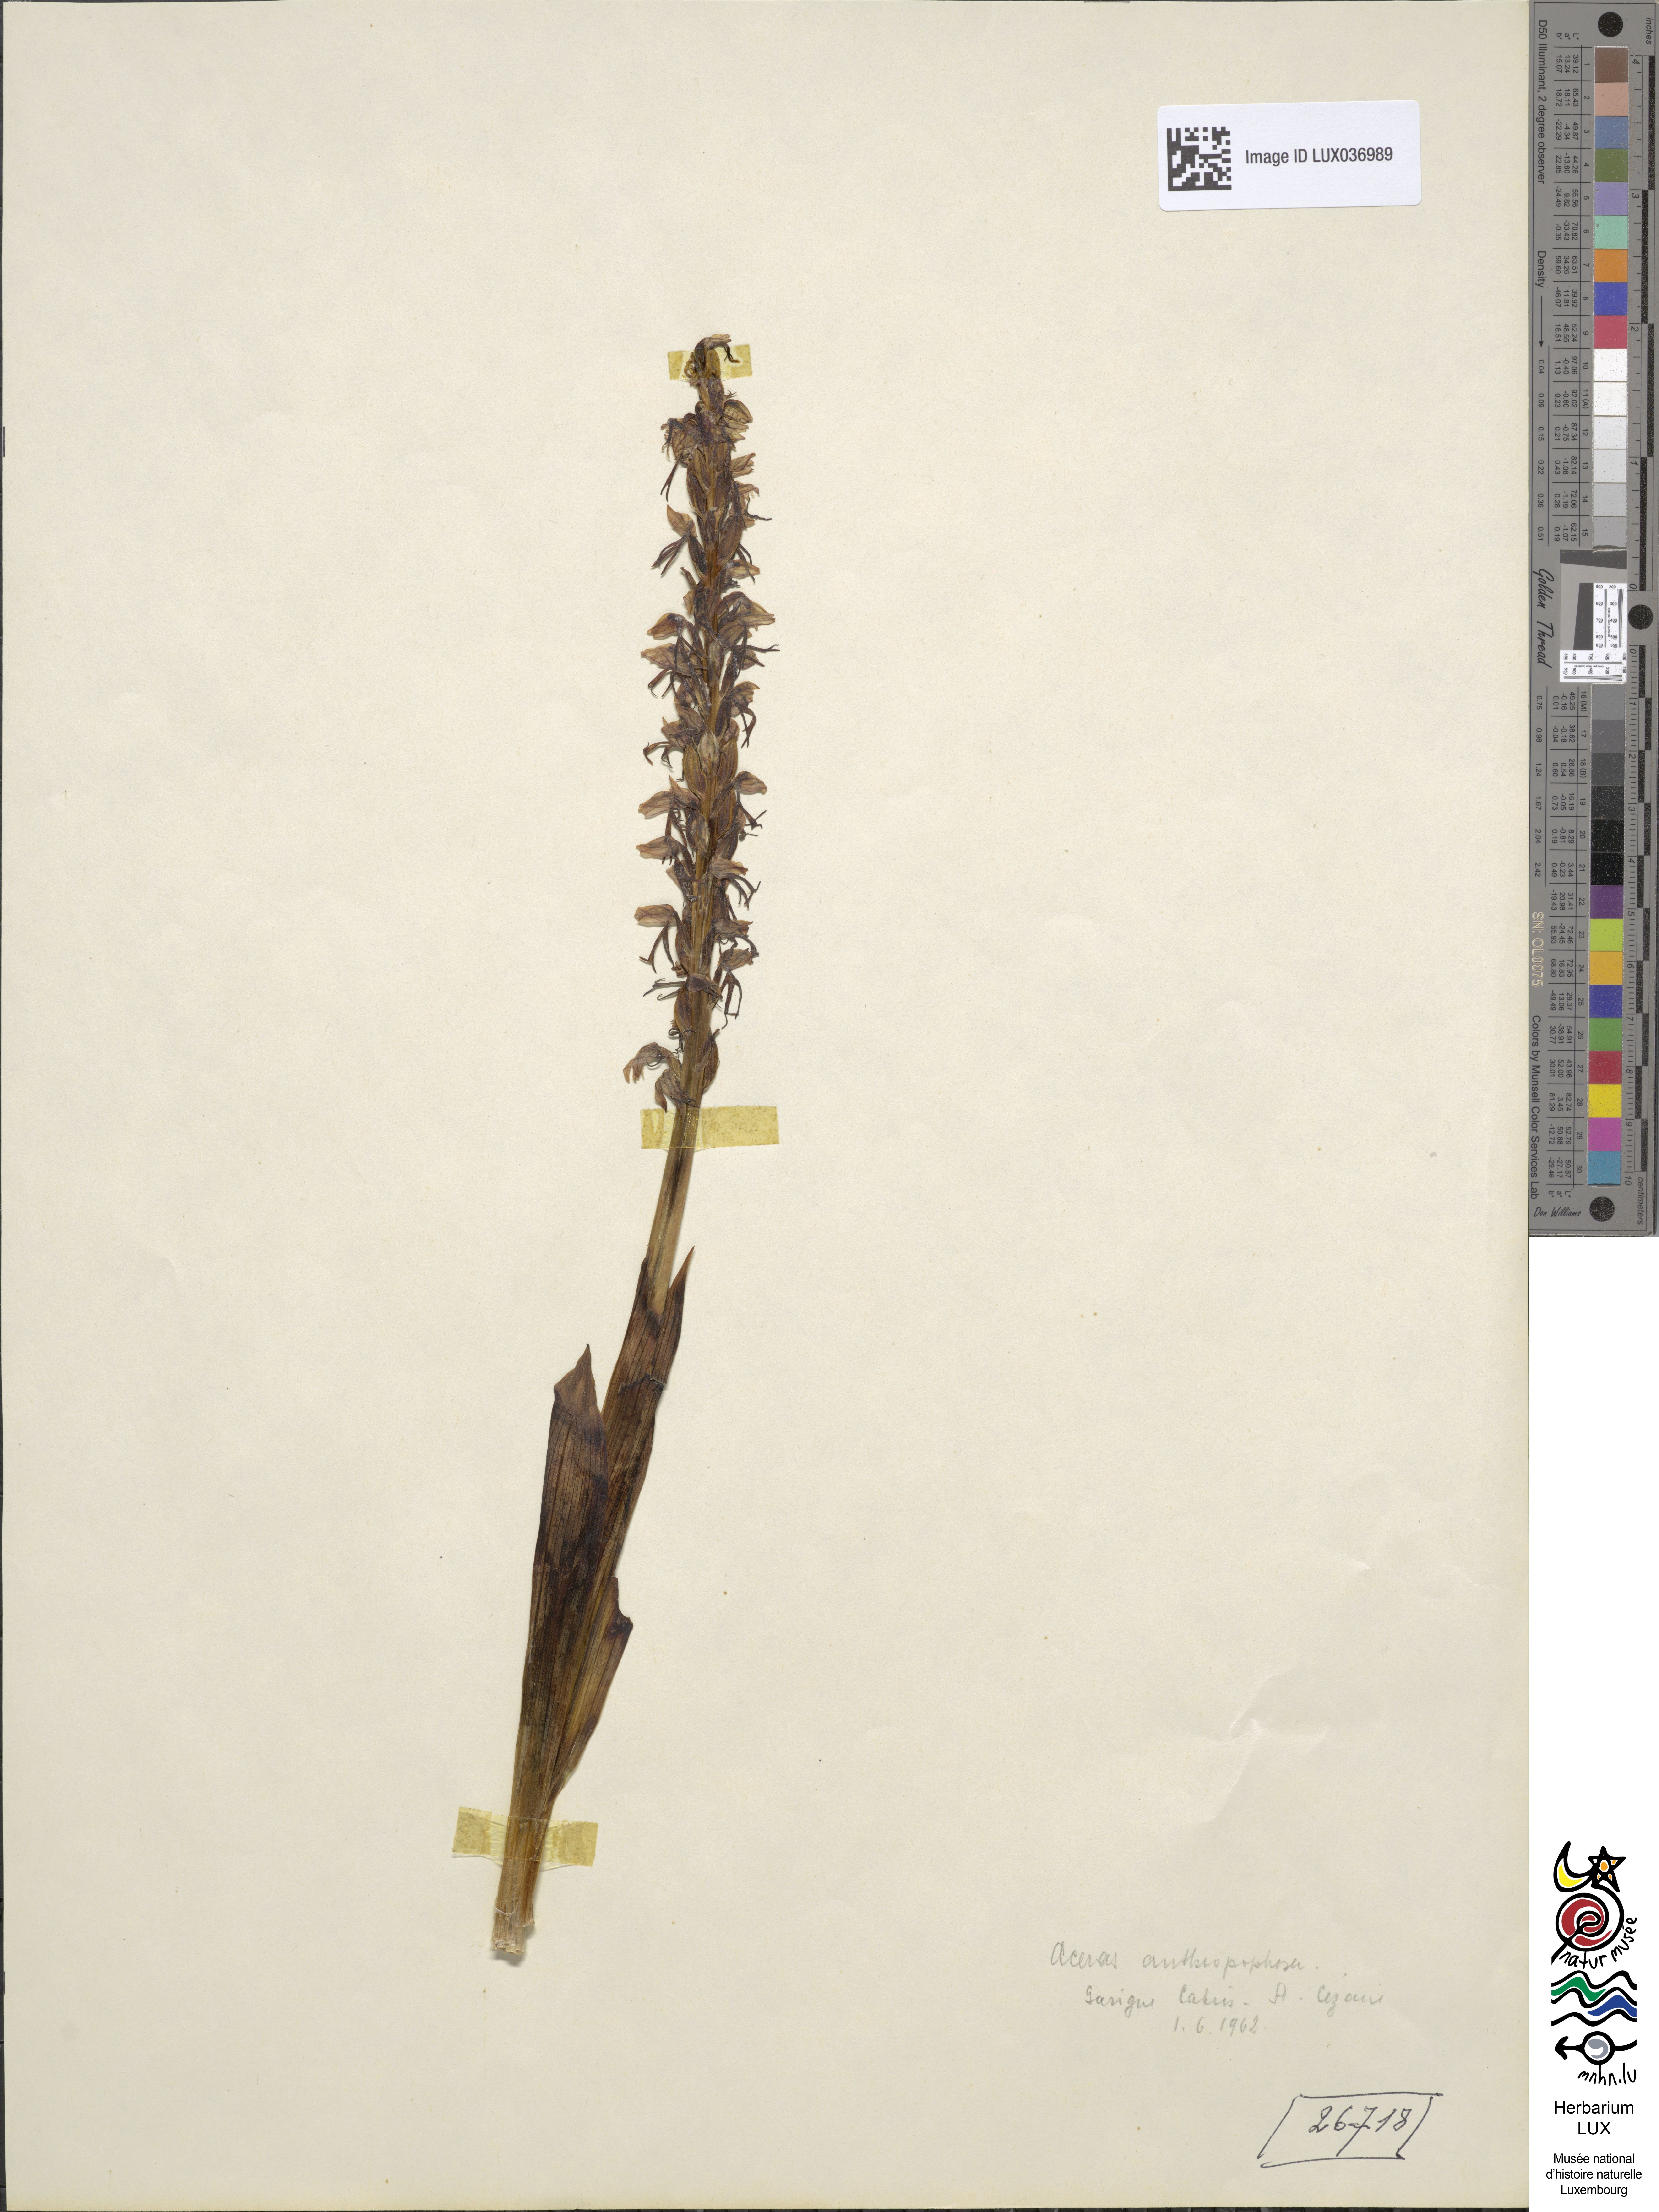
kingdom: Plantae
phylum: Tracheophyta
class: Liliopsida
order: Asparagales
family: Orchidaceae
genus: Orchis
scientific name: Orchis anthropophora
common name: Man orchid
